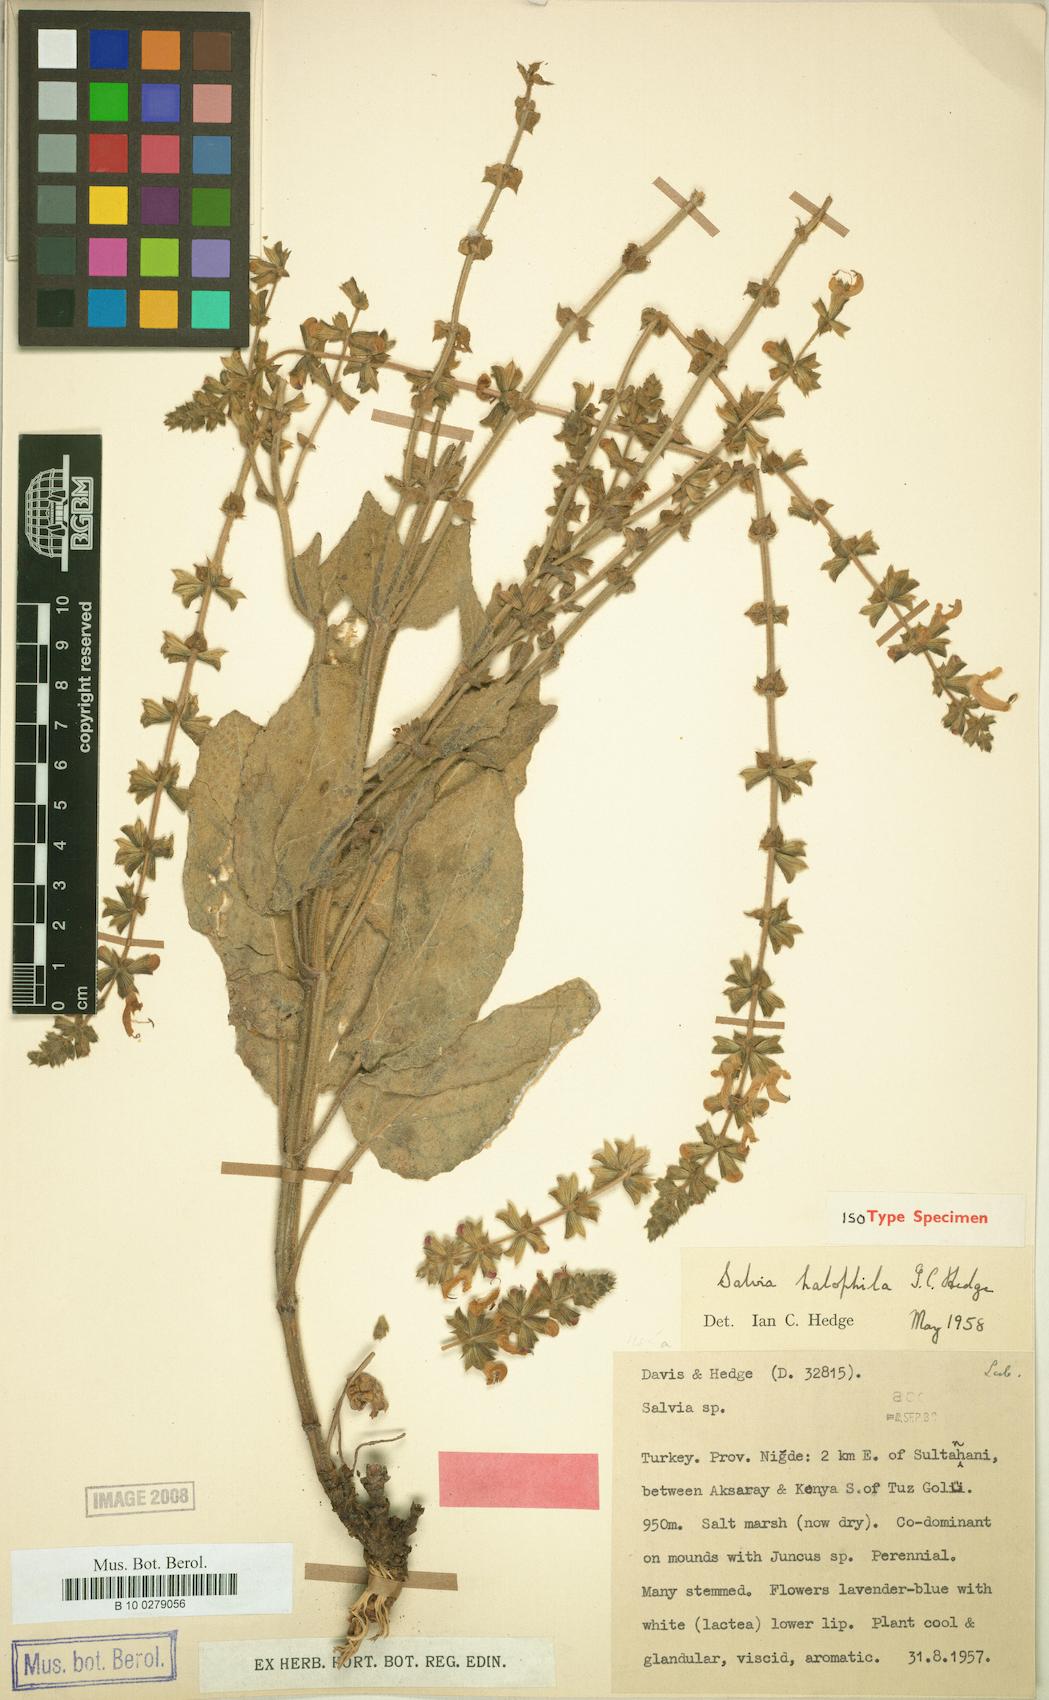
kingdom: Plantae
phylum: Tracheophyta
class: Magnoliopsida
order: Lamiales
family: Lamiaceae
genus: Salvia
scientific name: Salvia halophila
